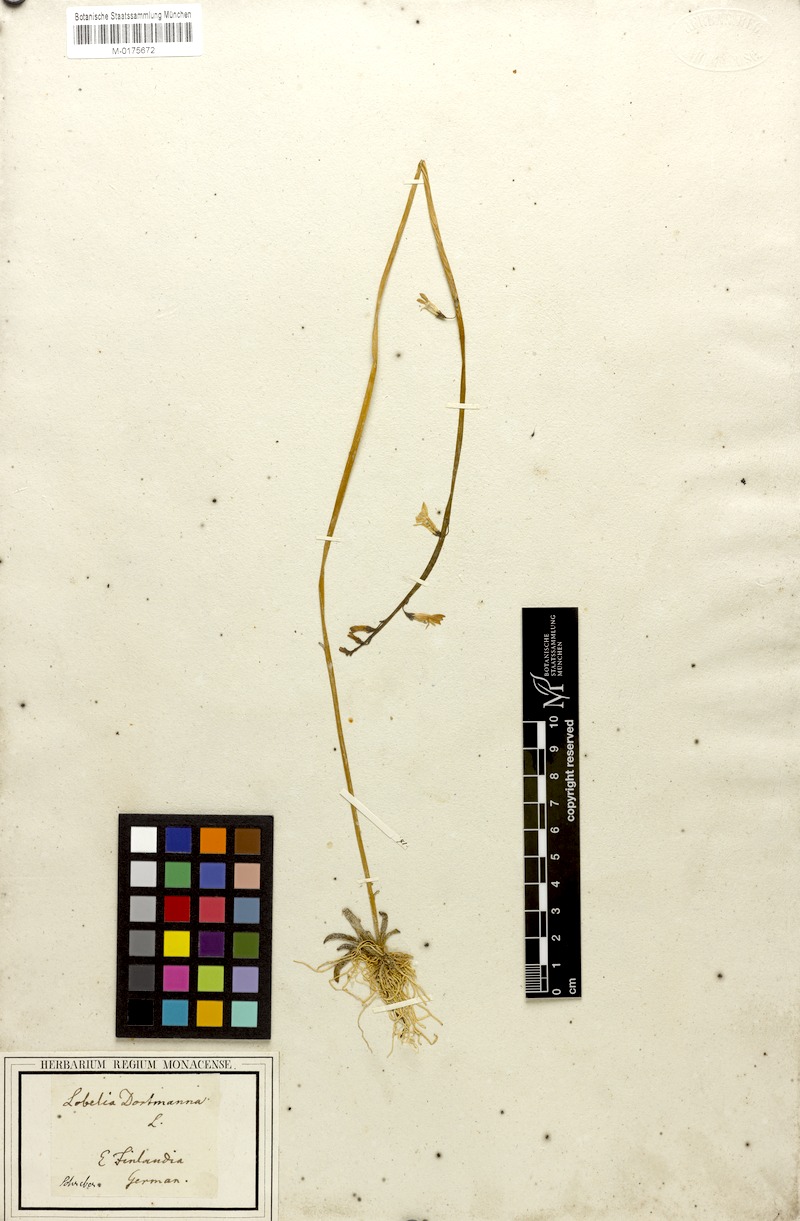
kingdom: Plantae
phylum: Tracheophyta
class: Magnoliopsida
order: Asterales
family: Campanulaceae
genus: Lobelia
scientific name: Lobelia dortmanna
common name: Water lobelia
